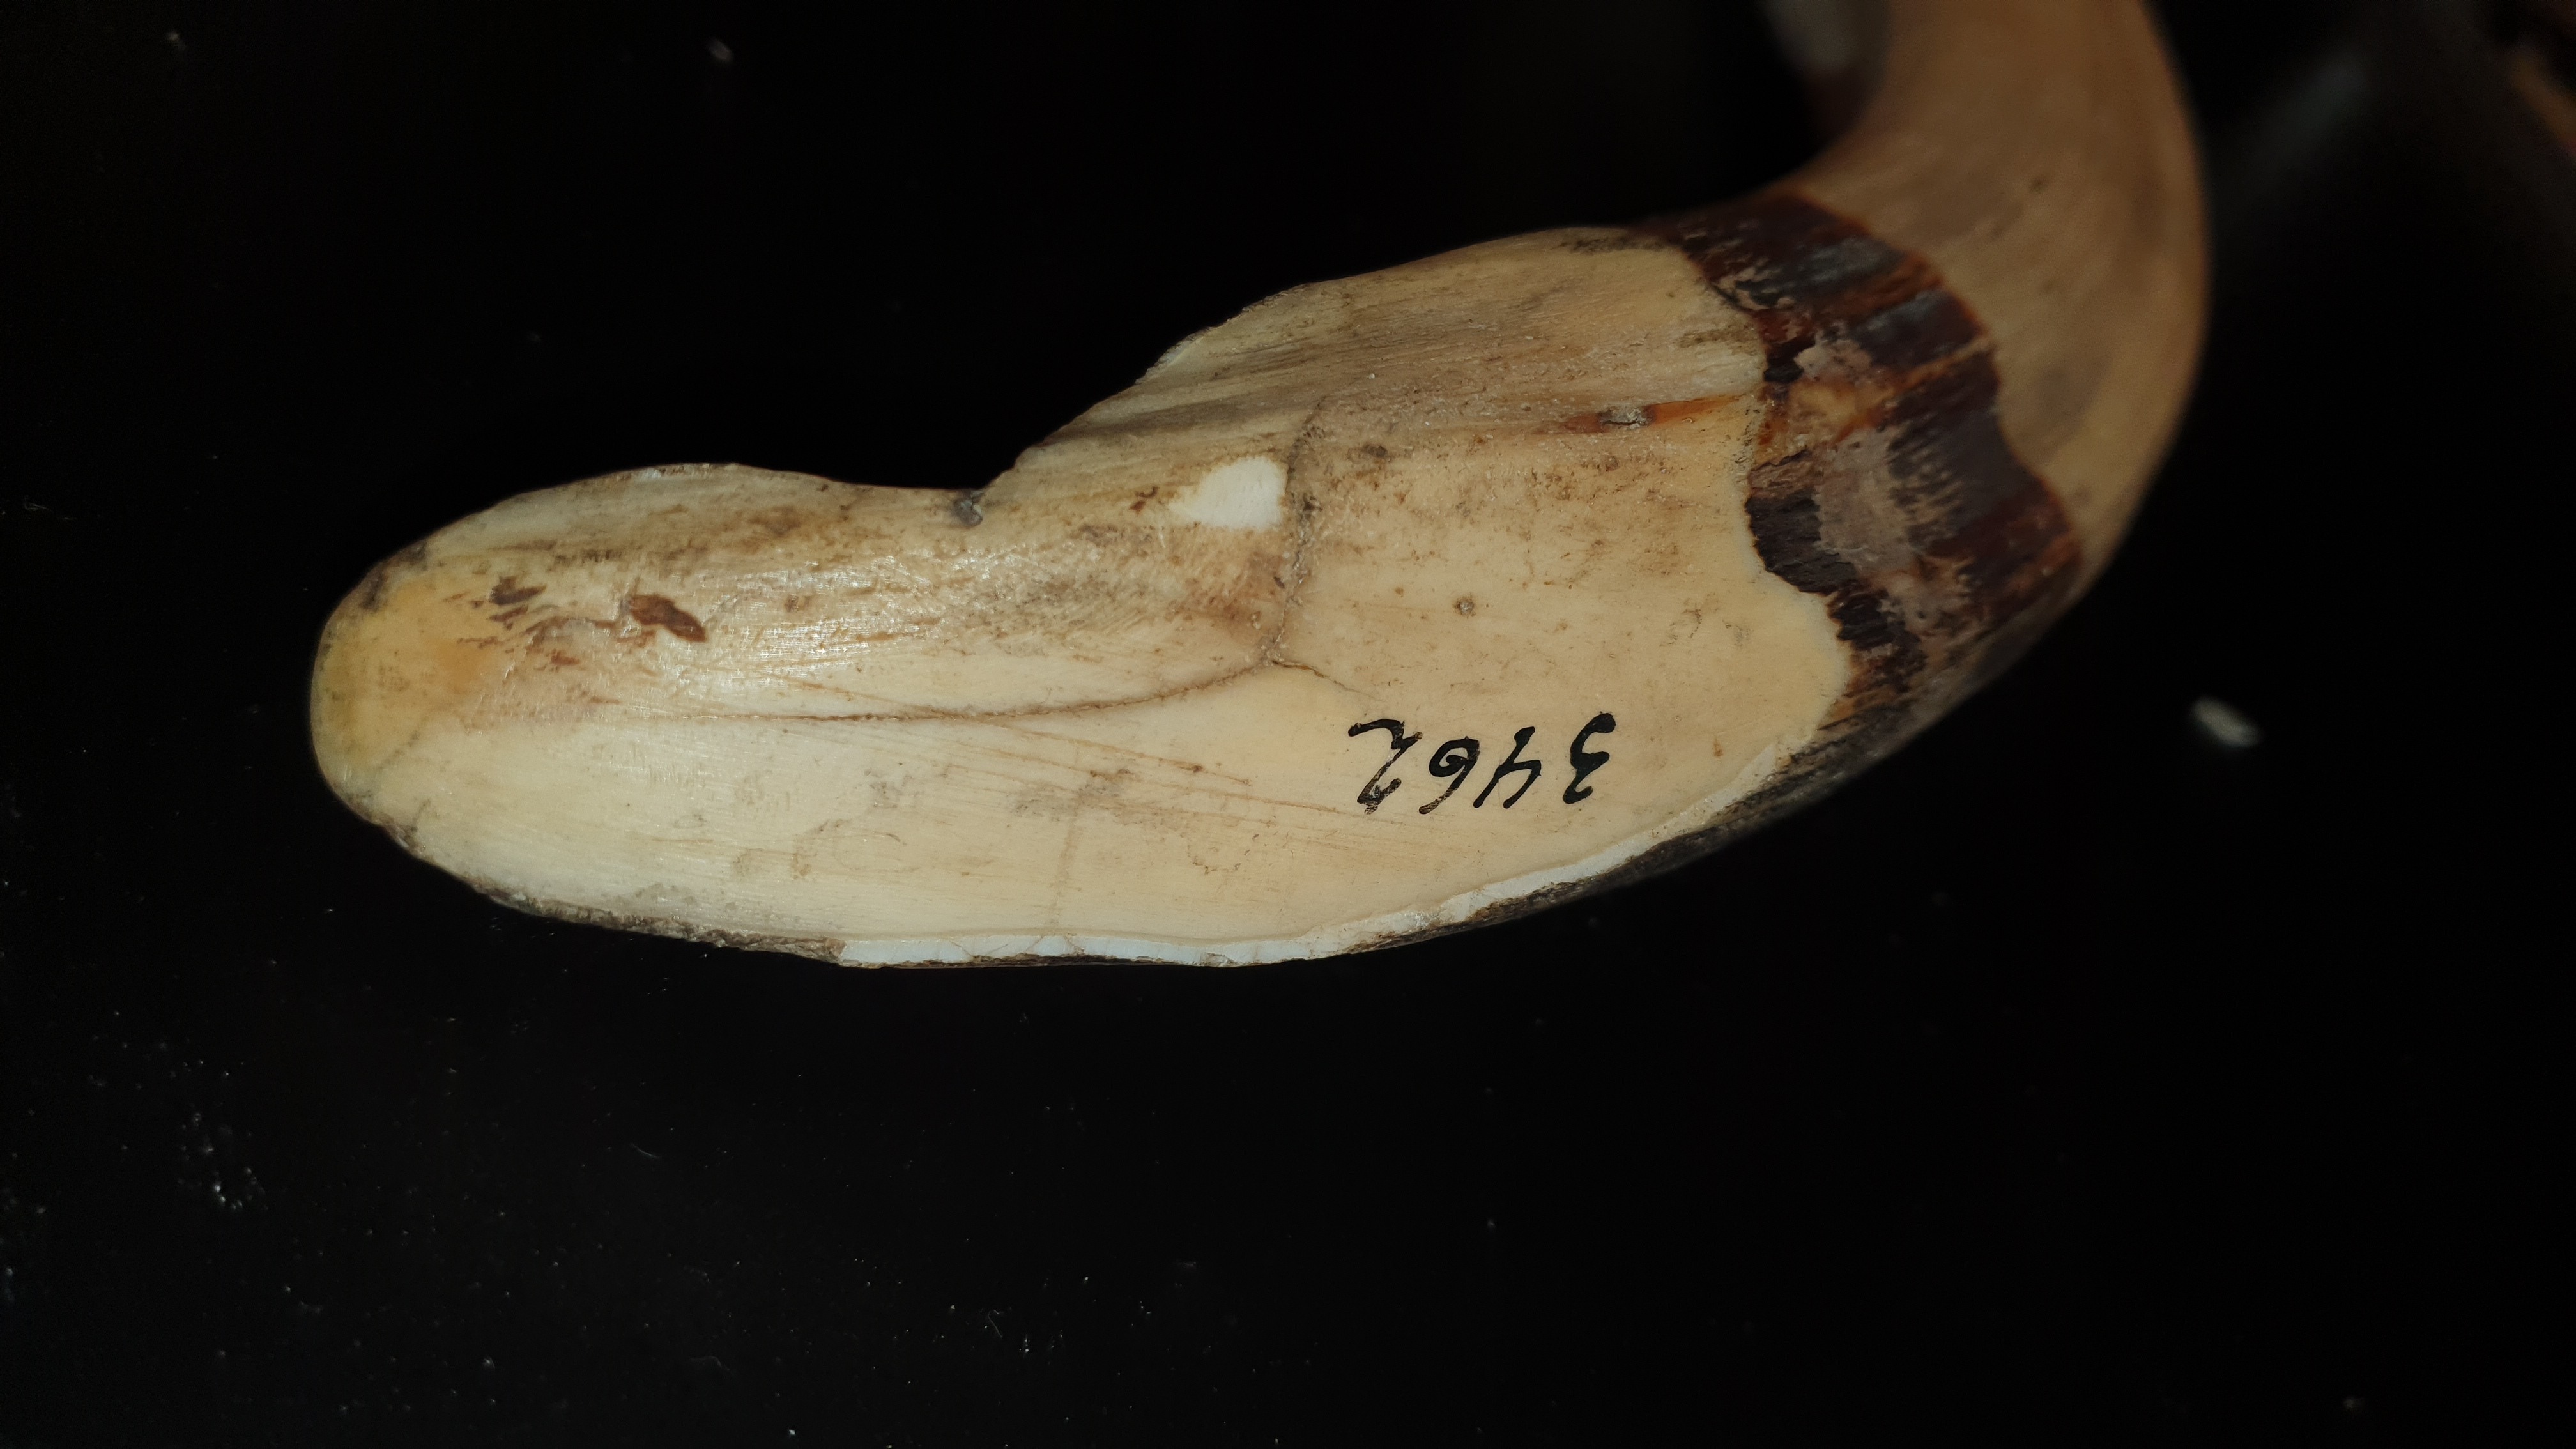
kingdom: Animalia
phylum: Chordata
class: Mammalia
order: Artiodactyla
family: Hippopotamidae
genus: Hippopotamus
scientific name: Hippopotamus amphibius
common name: Common hippopotamus
